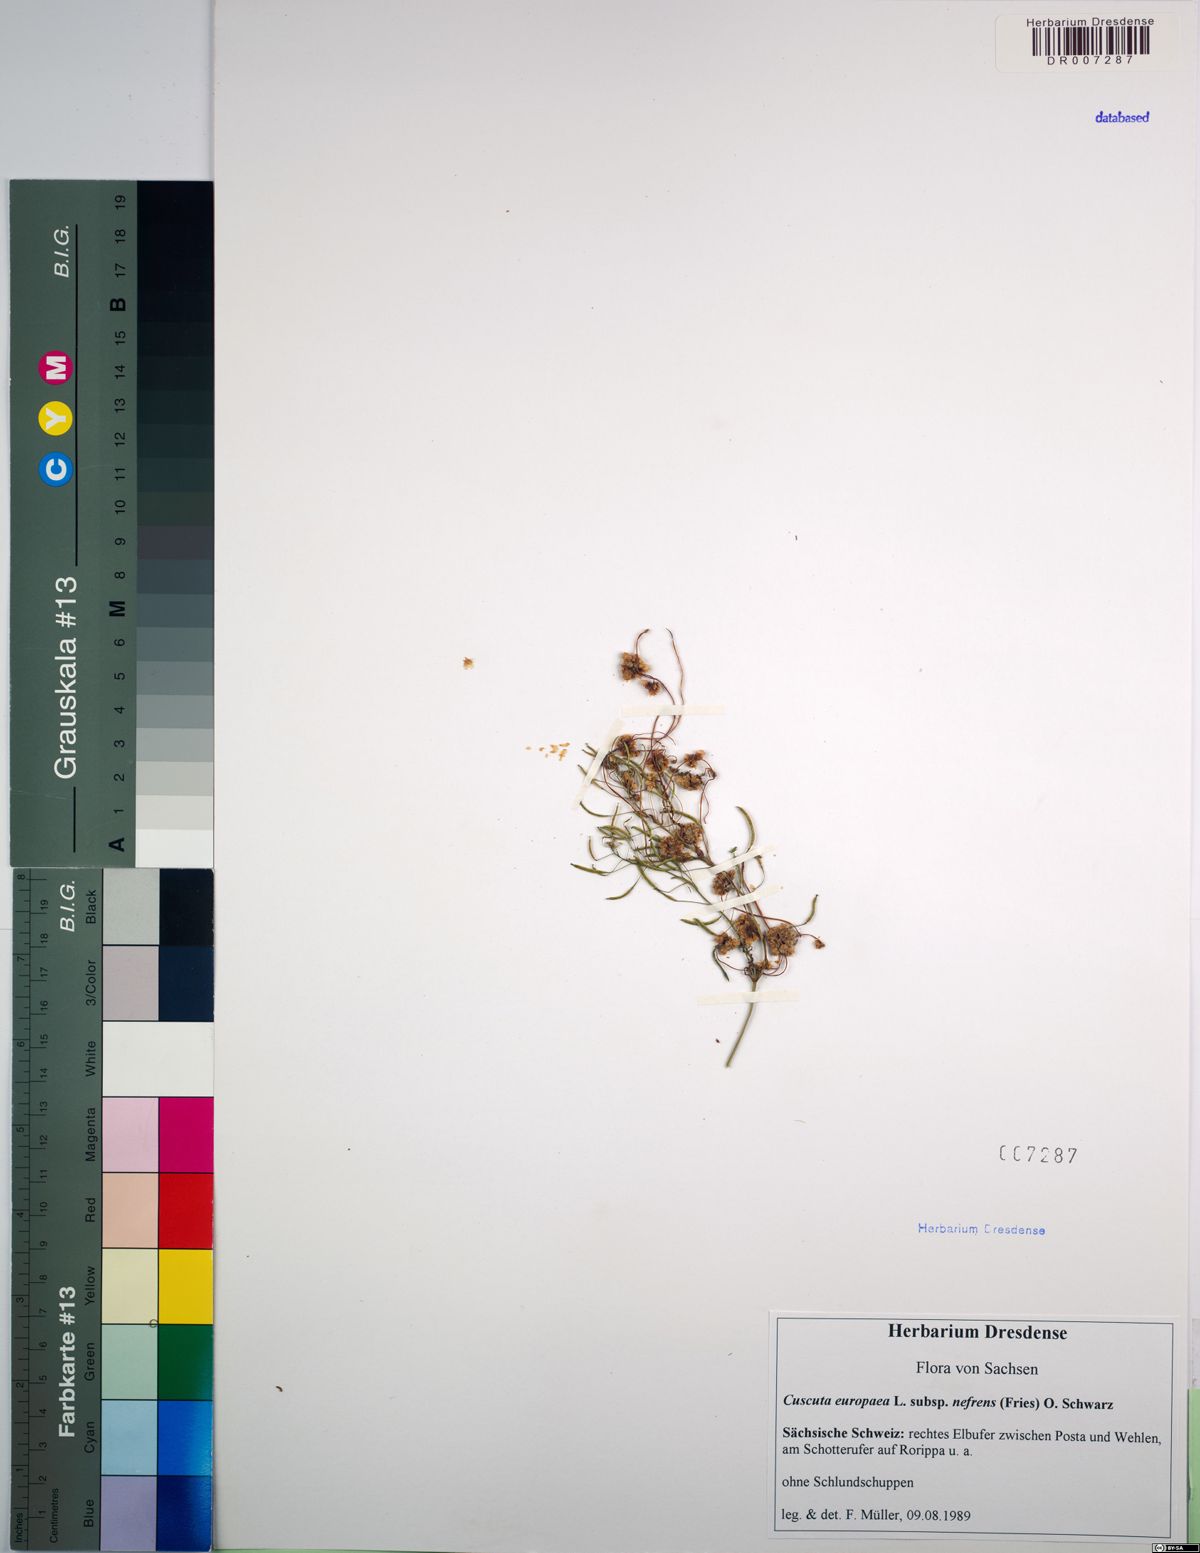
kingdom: Plantae
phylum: Tracheophyta
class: Magnoliopsida
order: Solanales
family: Convolvulaceae
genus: Cuscuta
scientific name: Cuscuta europaea
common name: Greater dodder
